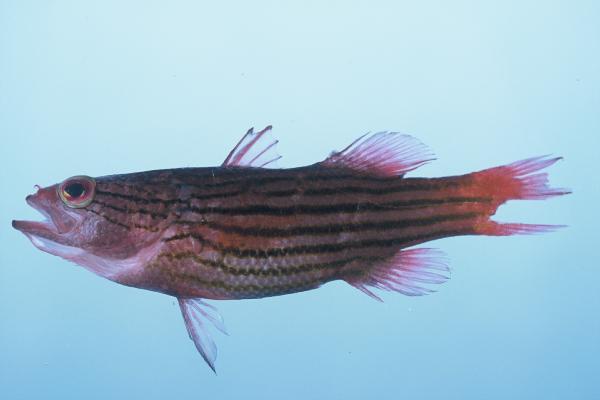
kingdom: Animalia
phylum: Chordata
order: Perciformes
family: Serranidae
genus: Liopropoma
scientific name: Liopropoma susumi
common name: Striped basslet
